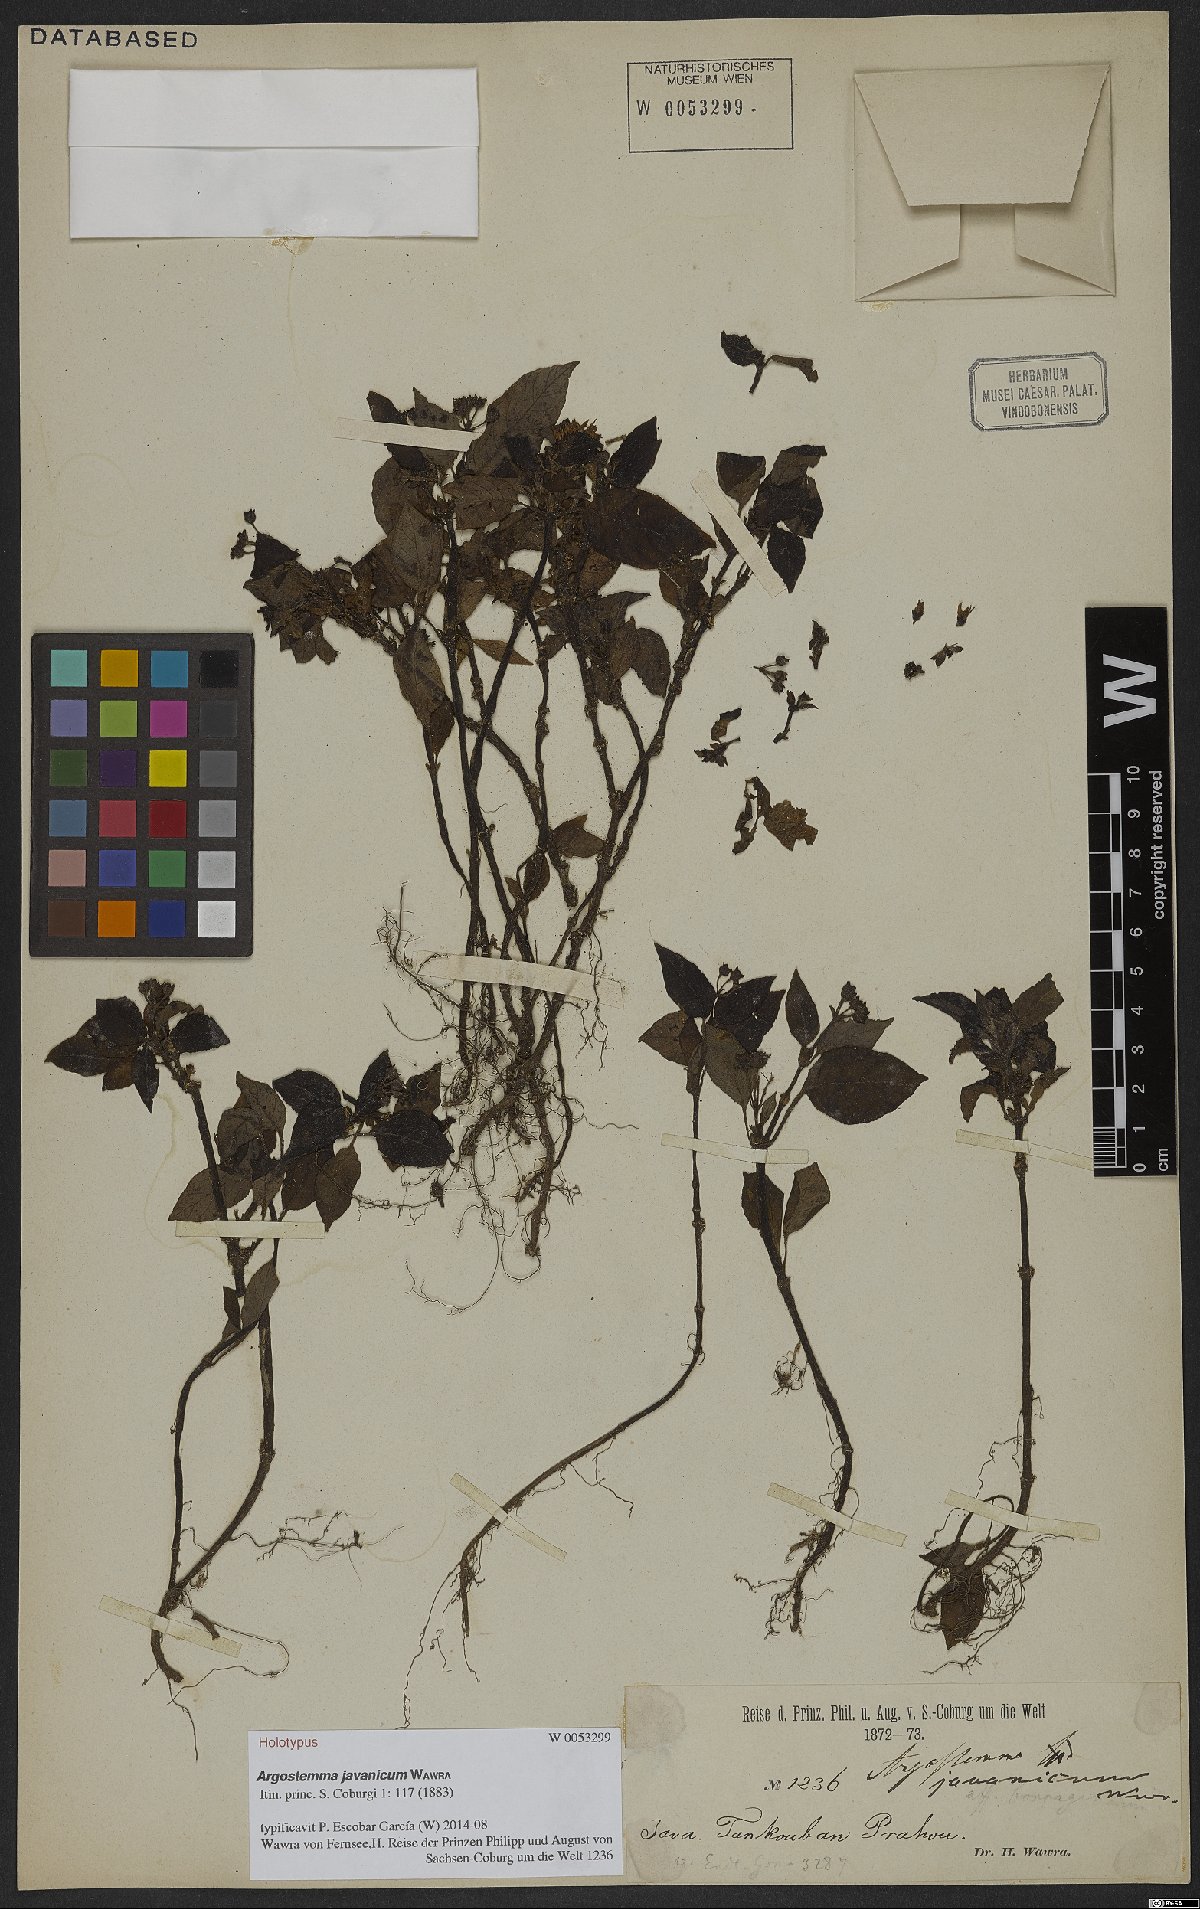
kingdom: Plantae
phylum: Tracheophyta
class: Magnoliopsida
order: Gentianales
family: Rubiaceae
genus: Argostemma
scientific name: Argostemma javanicum
